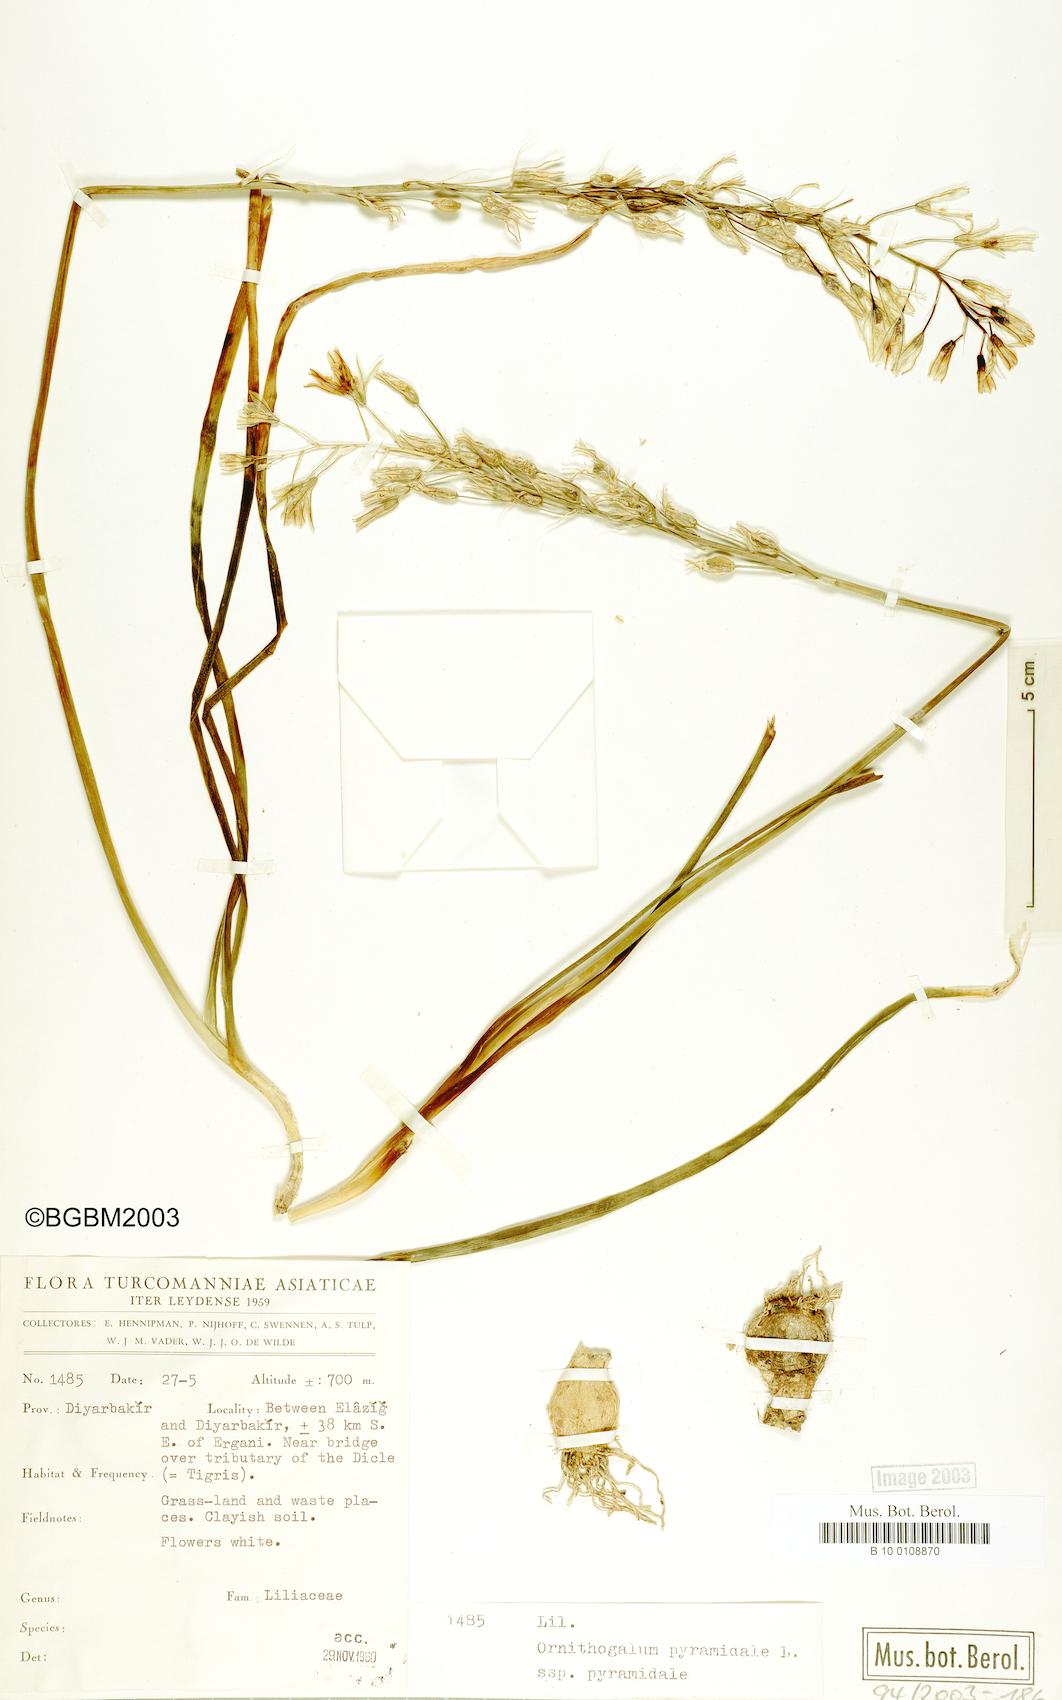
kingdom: Plantae
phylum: Tracheophyta
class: Liliopsida
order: Asparagales
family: Asparagaceae
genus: Ornithogalum
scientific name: Ornithogalum pyramidale
